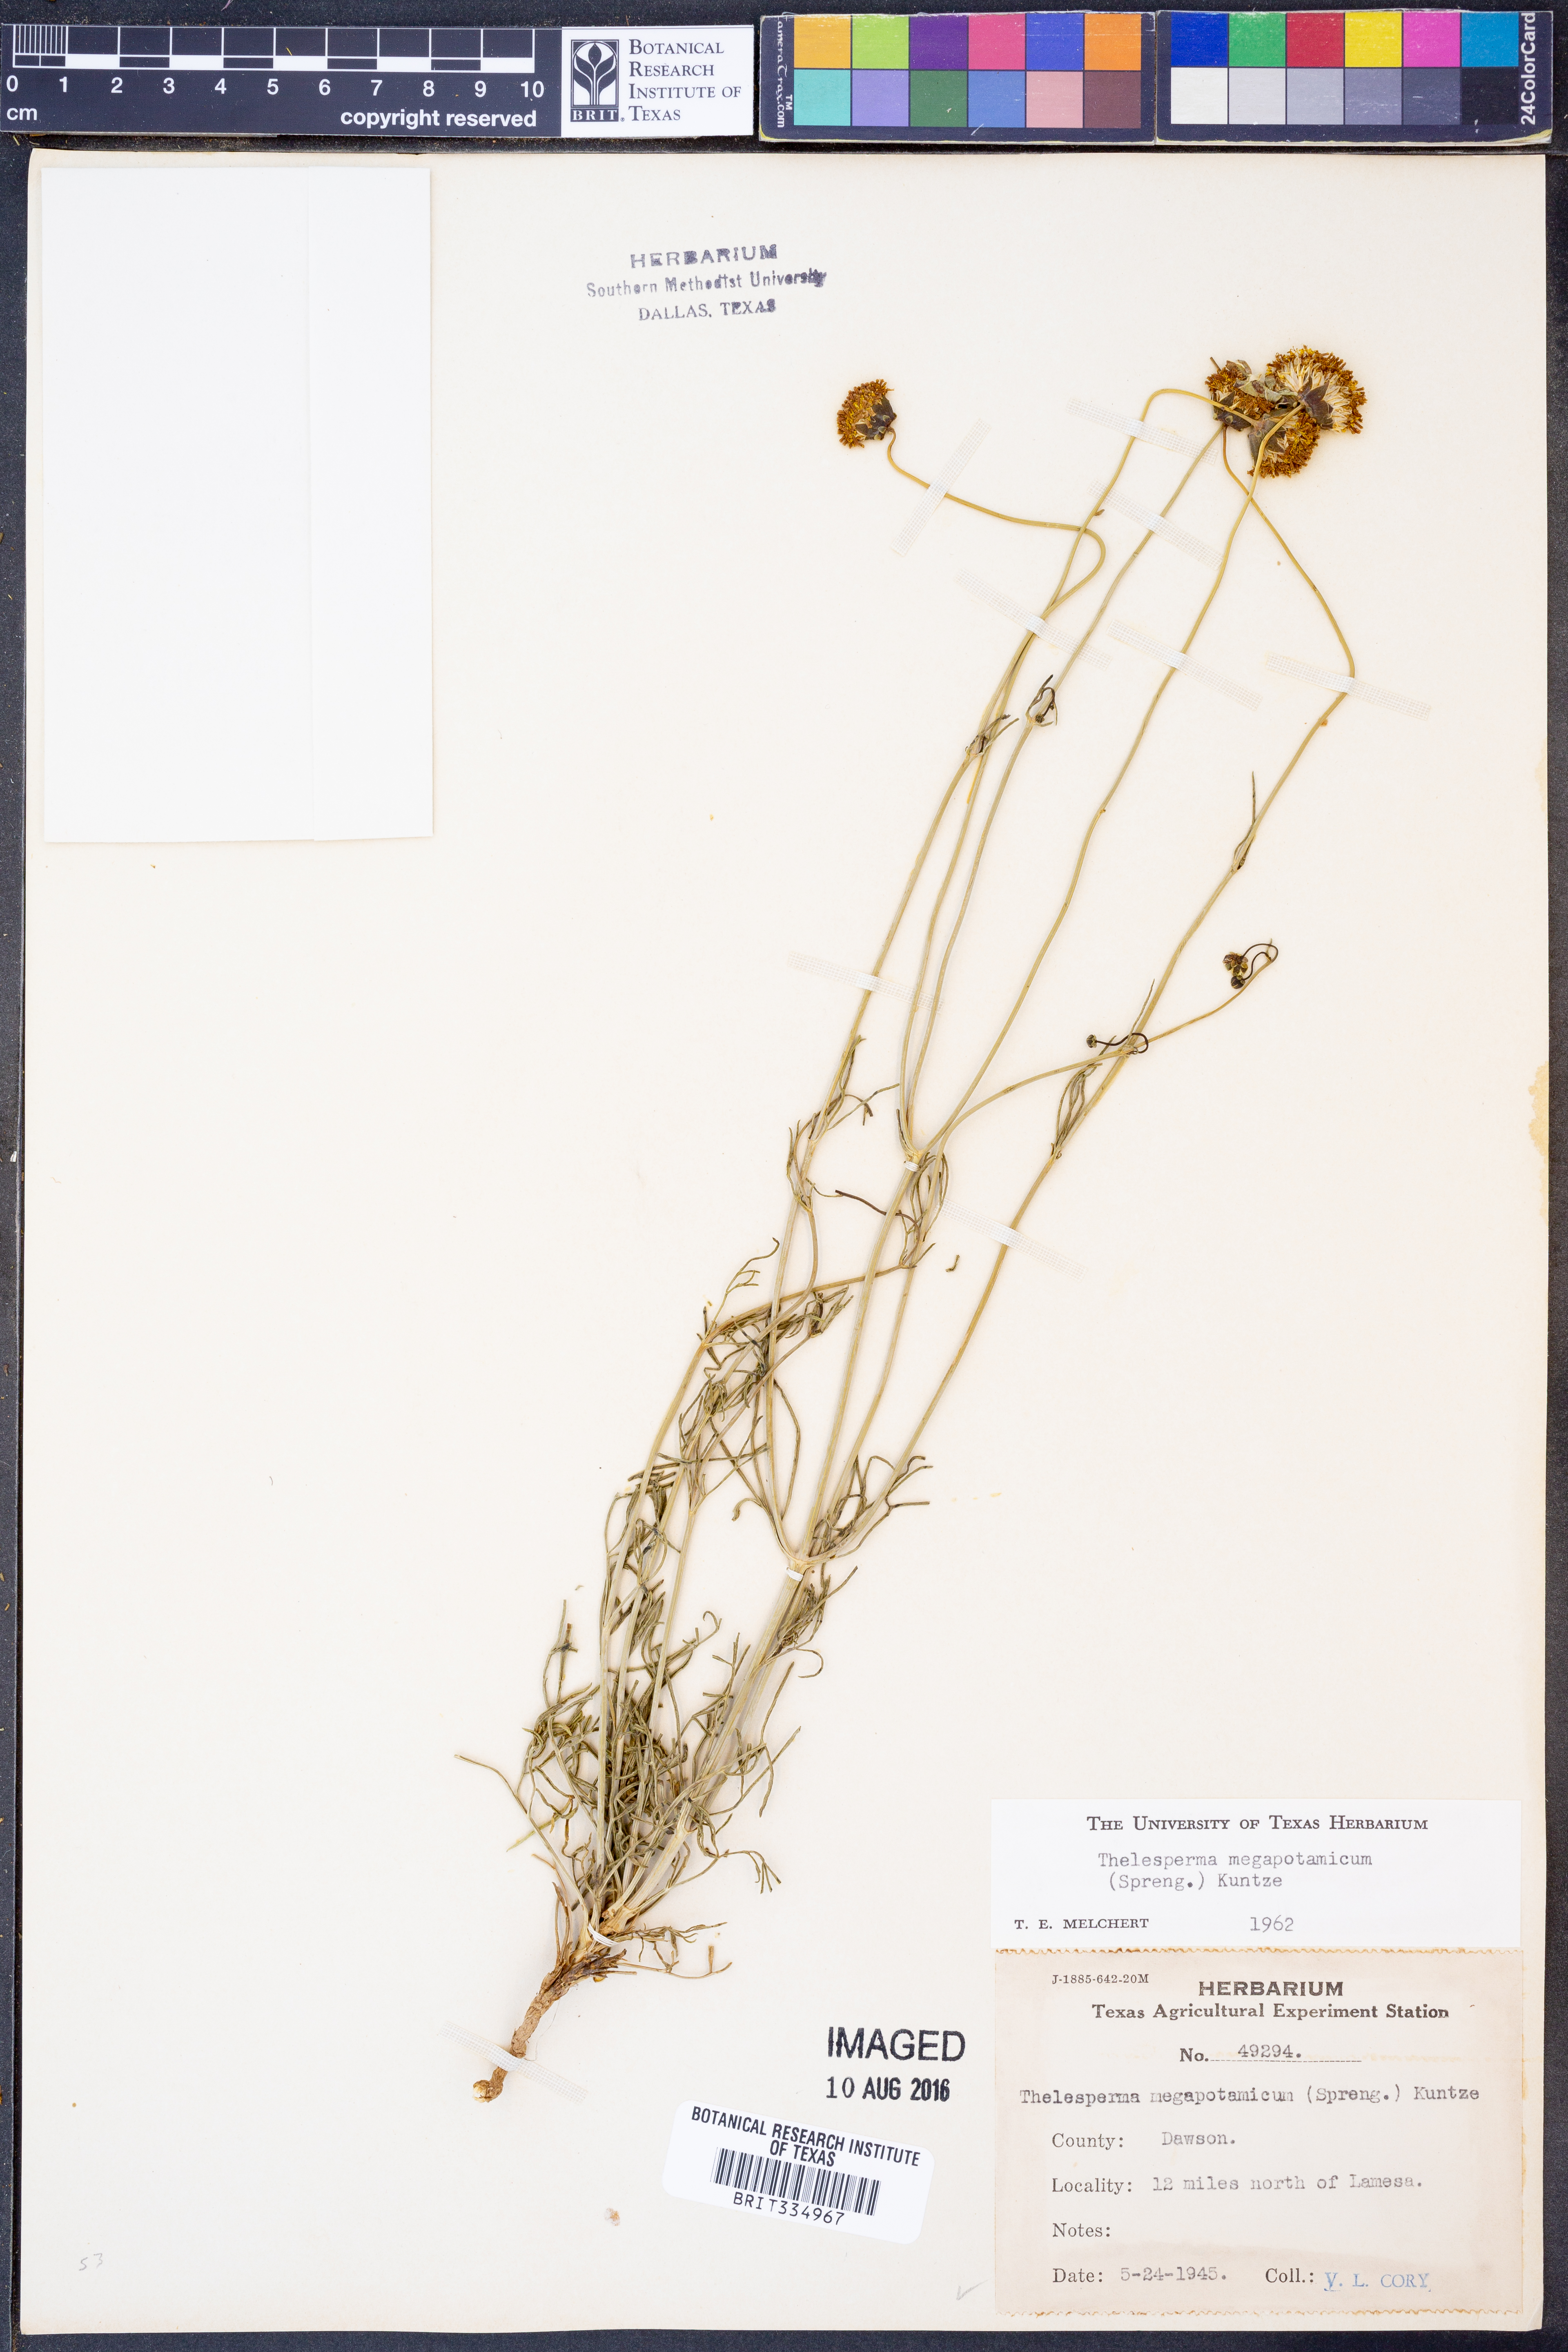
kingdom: Plantae
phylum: Tracheophyta
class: Magnoliopsida
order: Asterales
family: Asteraceae
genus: Thelesperma
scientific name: Thelesperma megapotamicum
